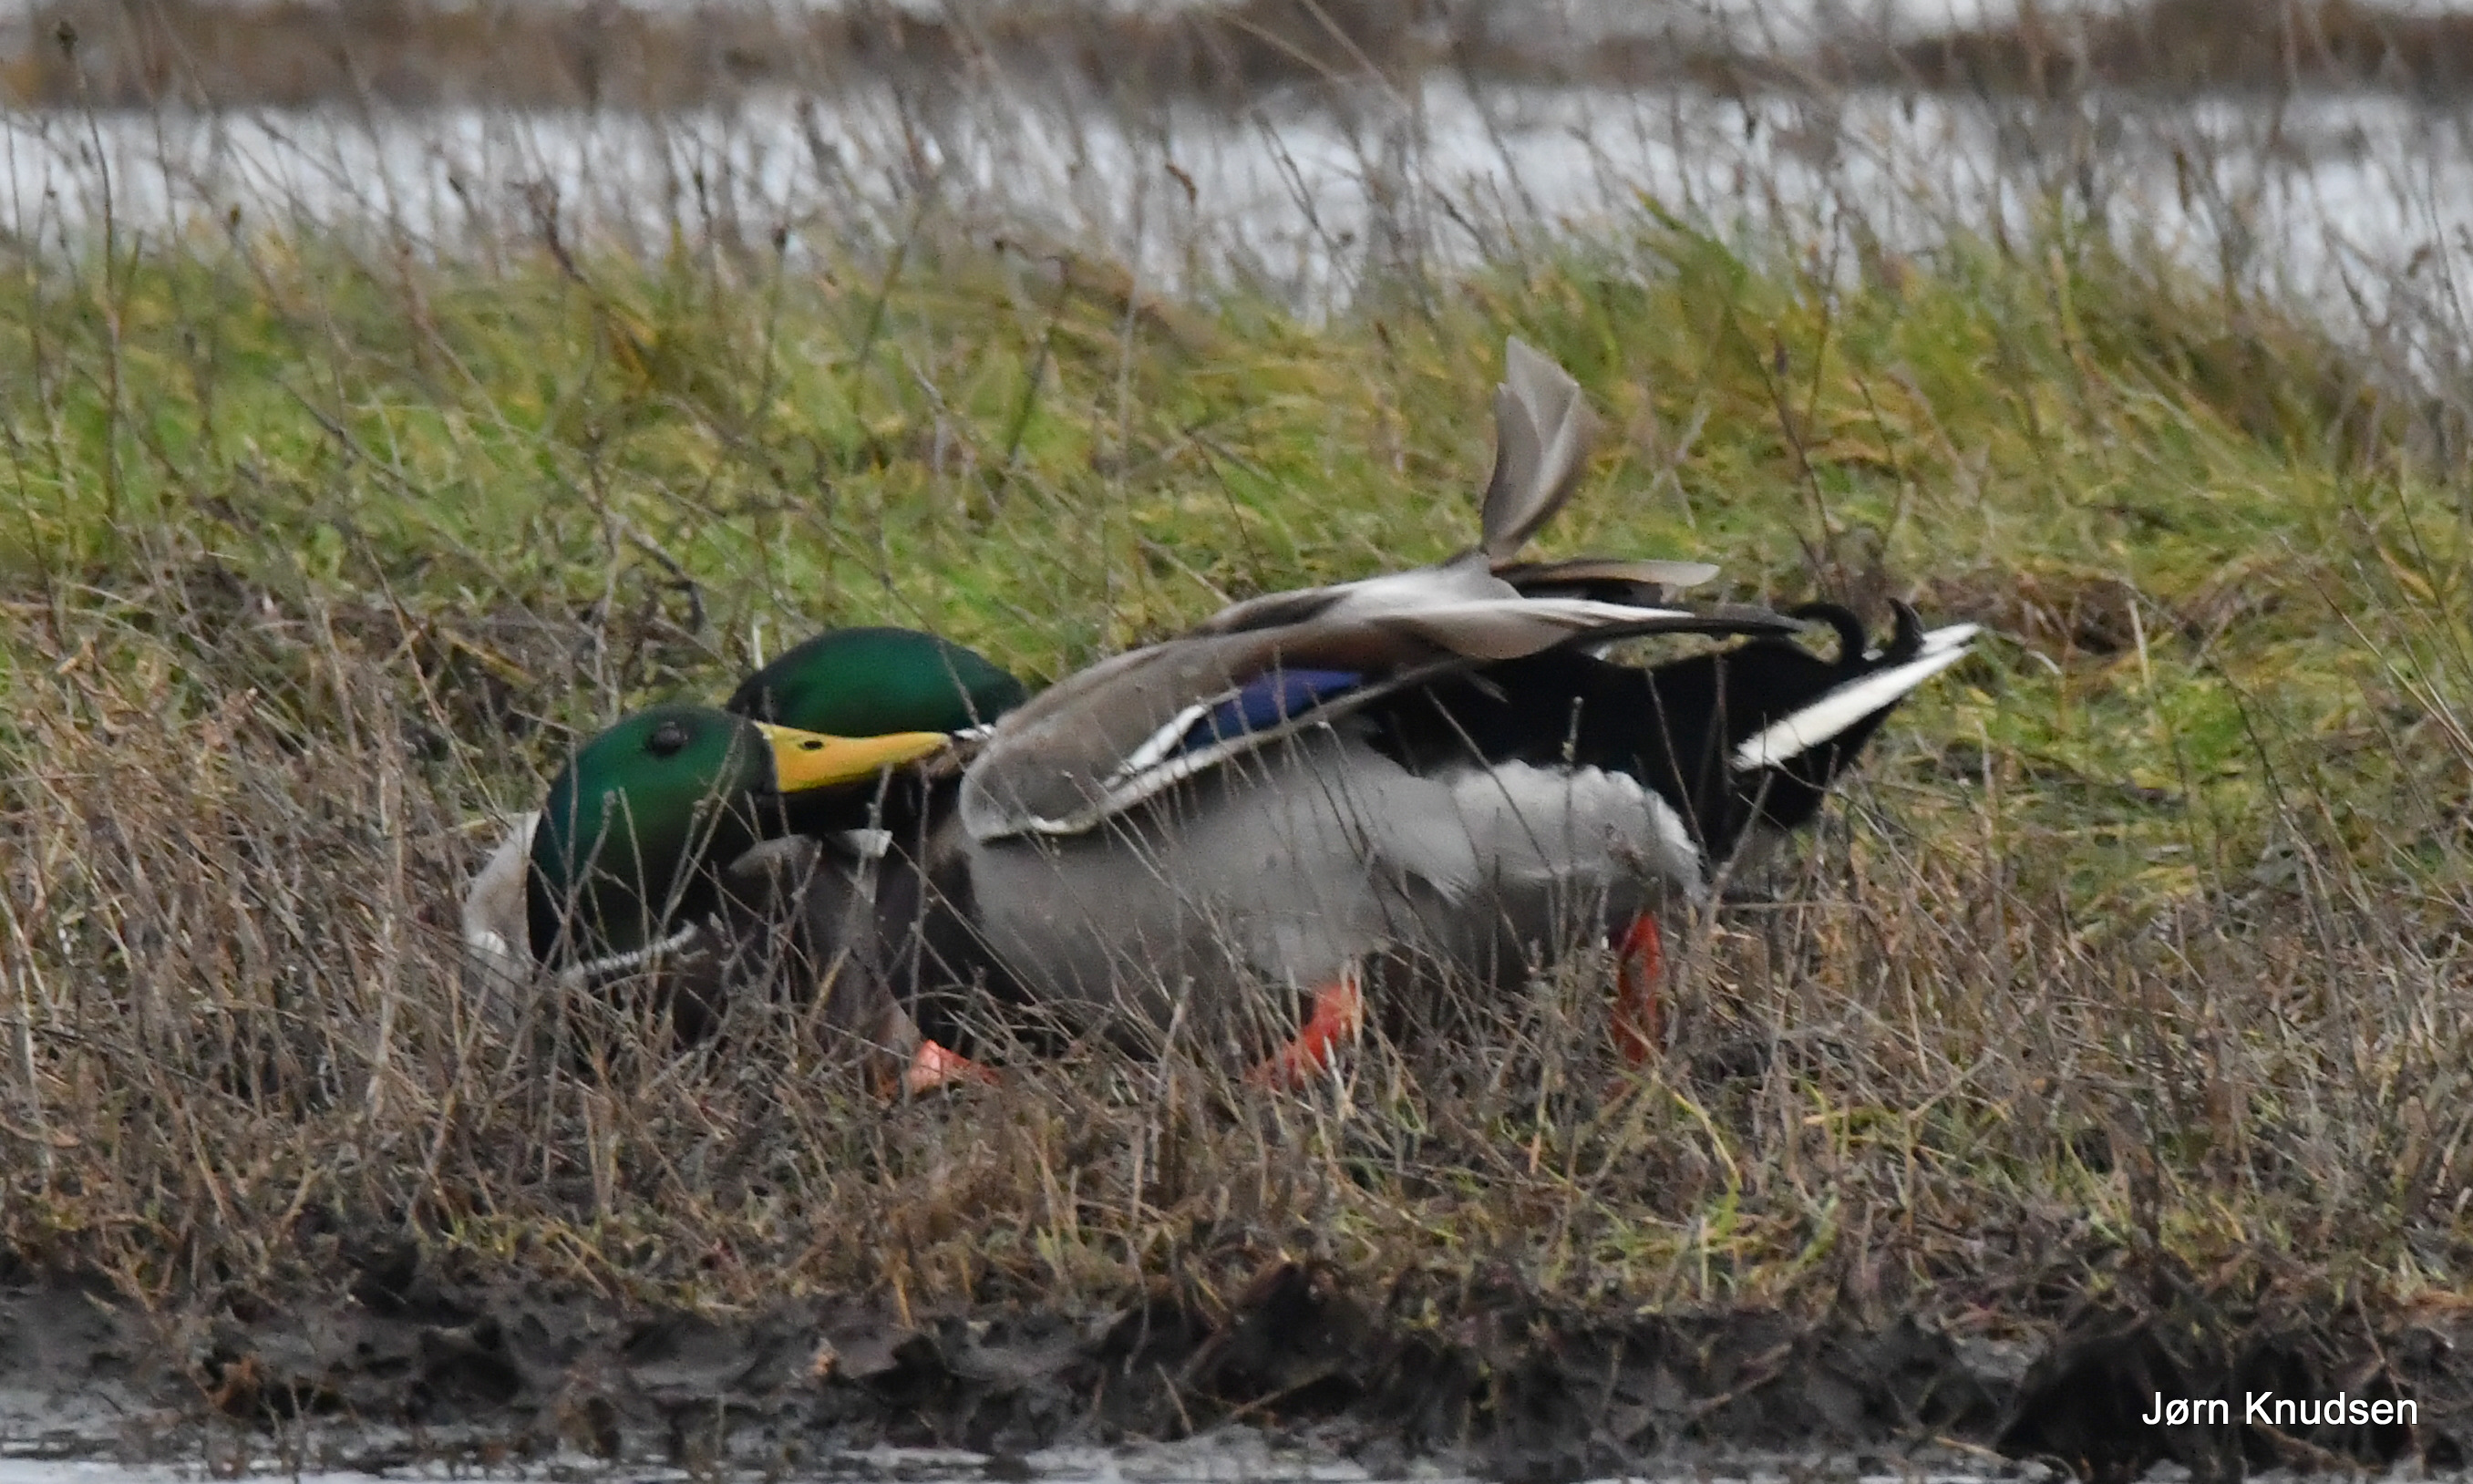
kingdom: Animalia
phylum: Chordata
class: Aves
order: Anseriformes
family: Anatidae
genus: Anas
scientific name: Anas platyrhynchos
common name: Gråand
